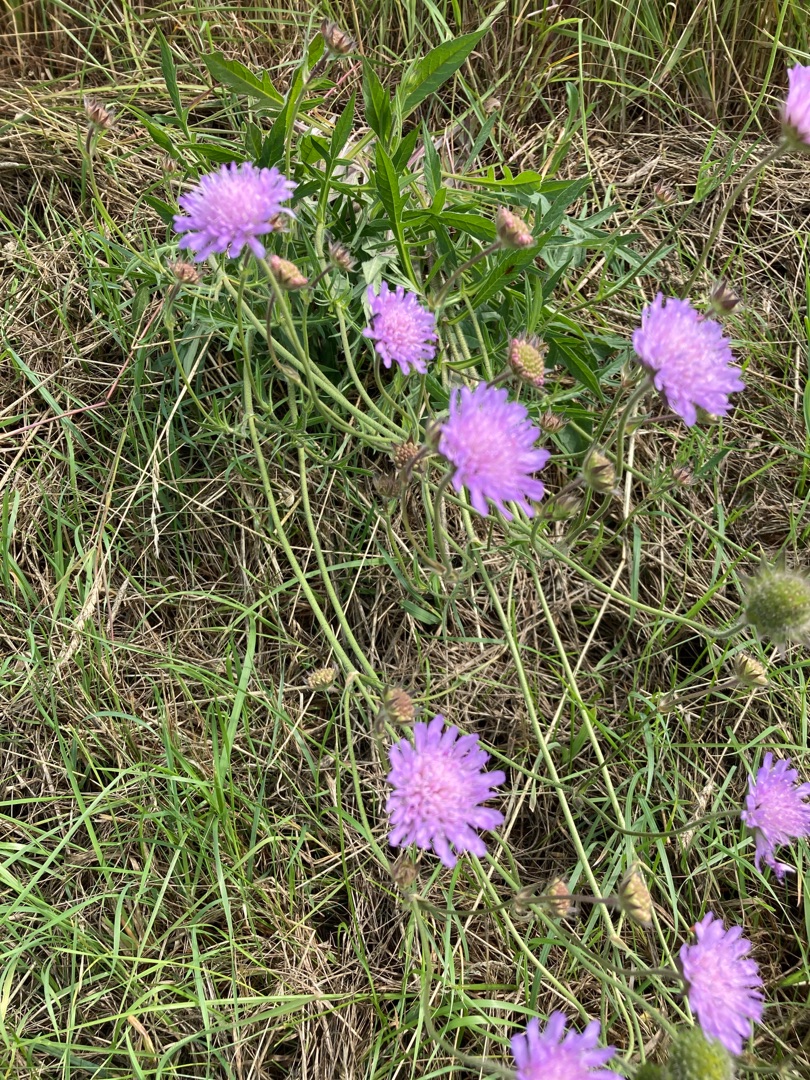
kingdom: Plantae
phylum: Tracheophyta
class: Magnoliopsida
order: Dipsacales
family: Caprifoliaceae
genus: Knautia
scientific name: Knautia arvensis
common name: Blåhat
